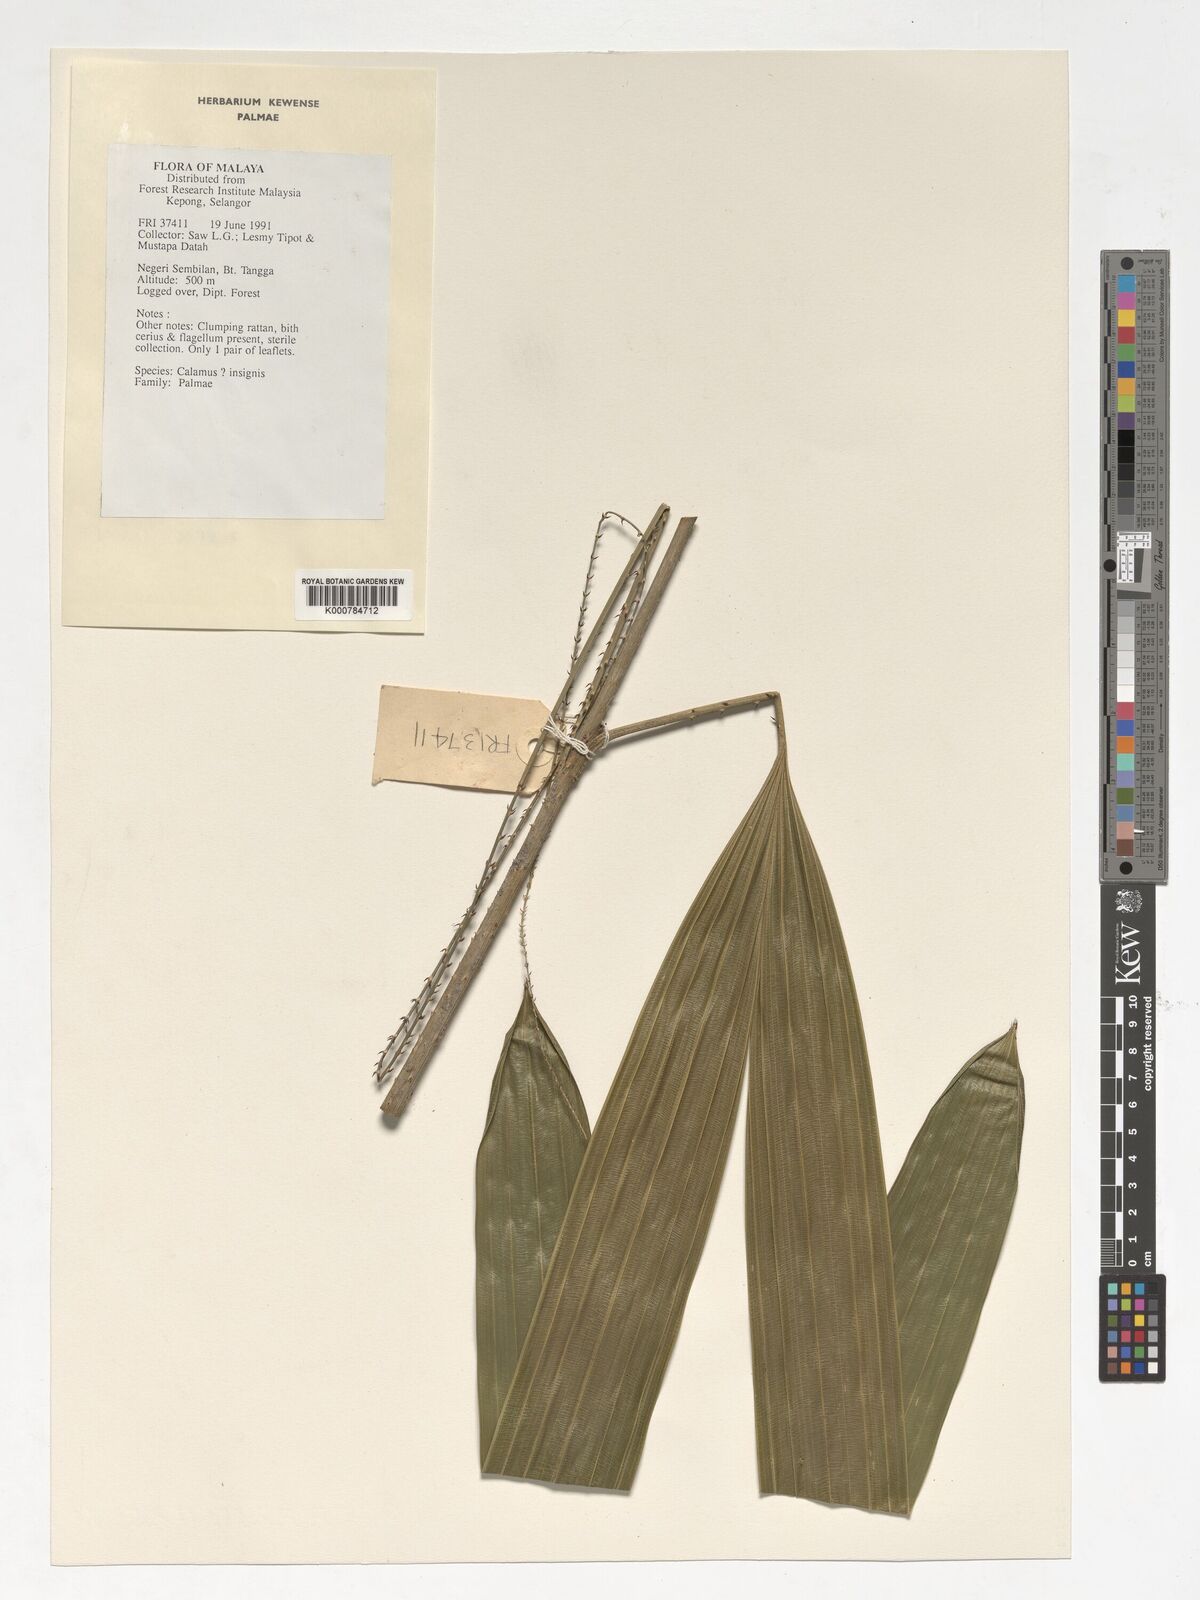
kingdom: Plantae
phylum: Tracheophyta
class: Liliopsida
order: Arecales
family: Arecaceae
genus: Calamus
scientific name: Calamus insignis
